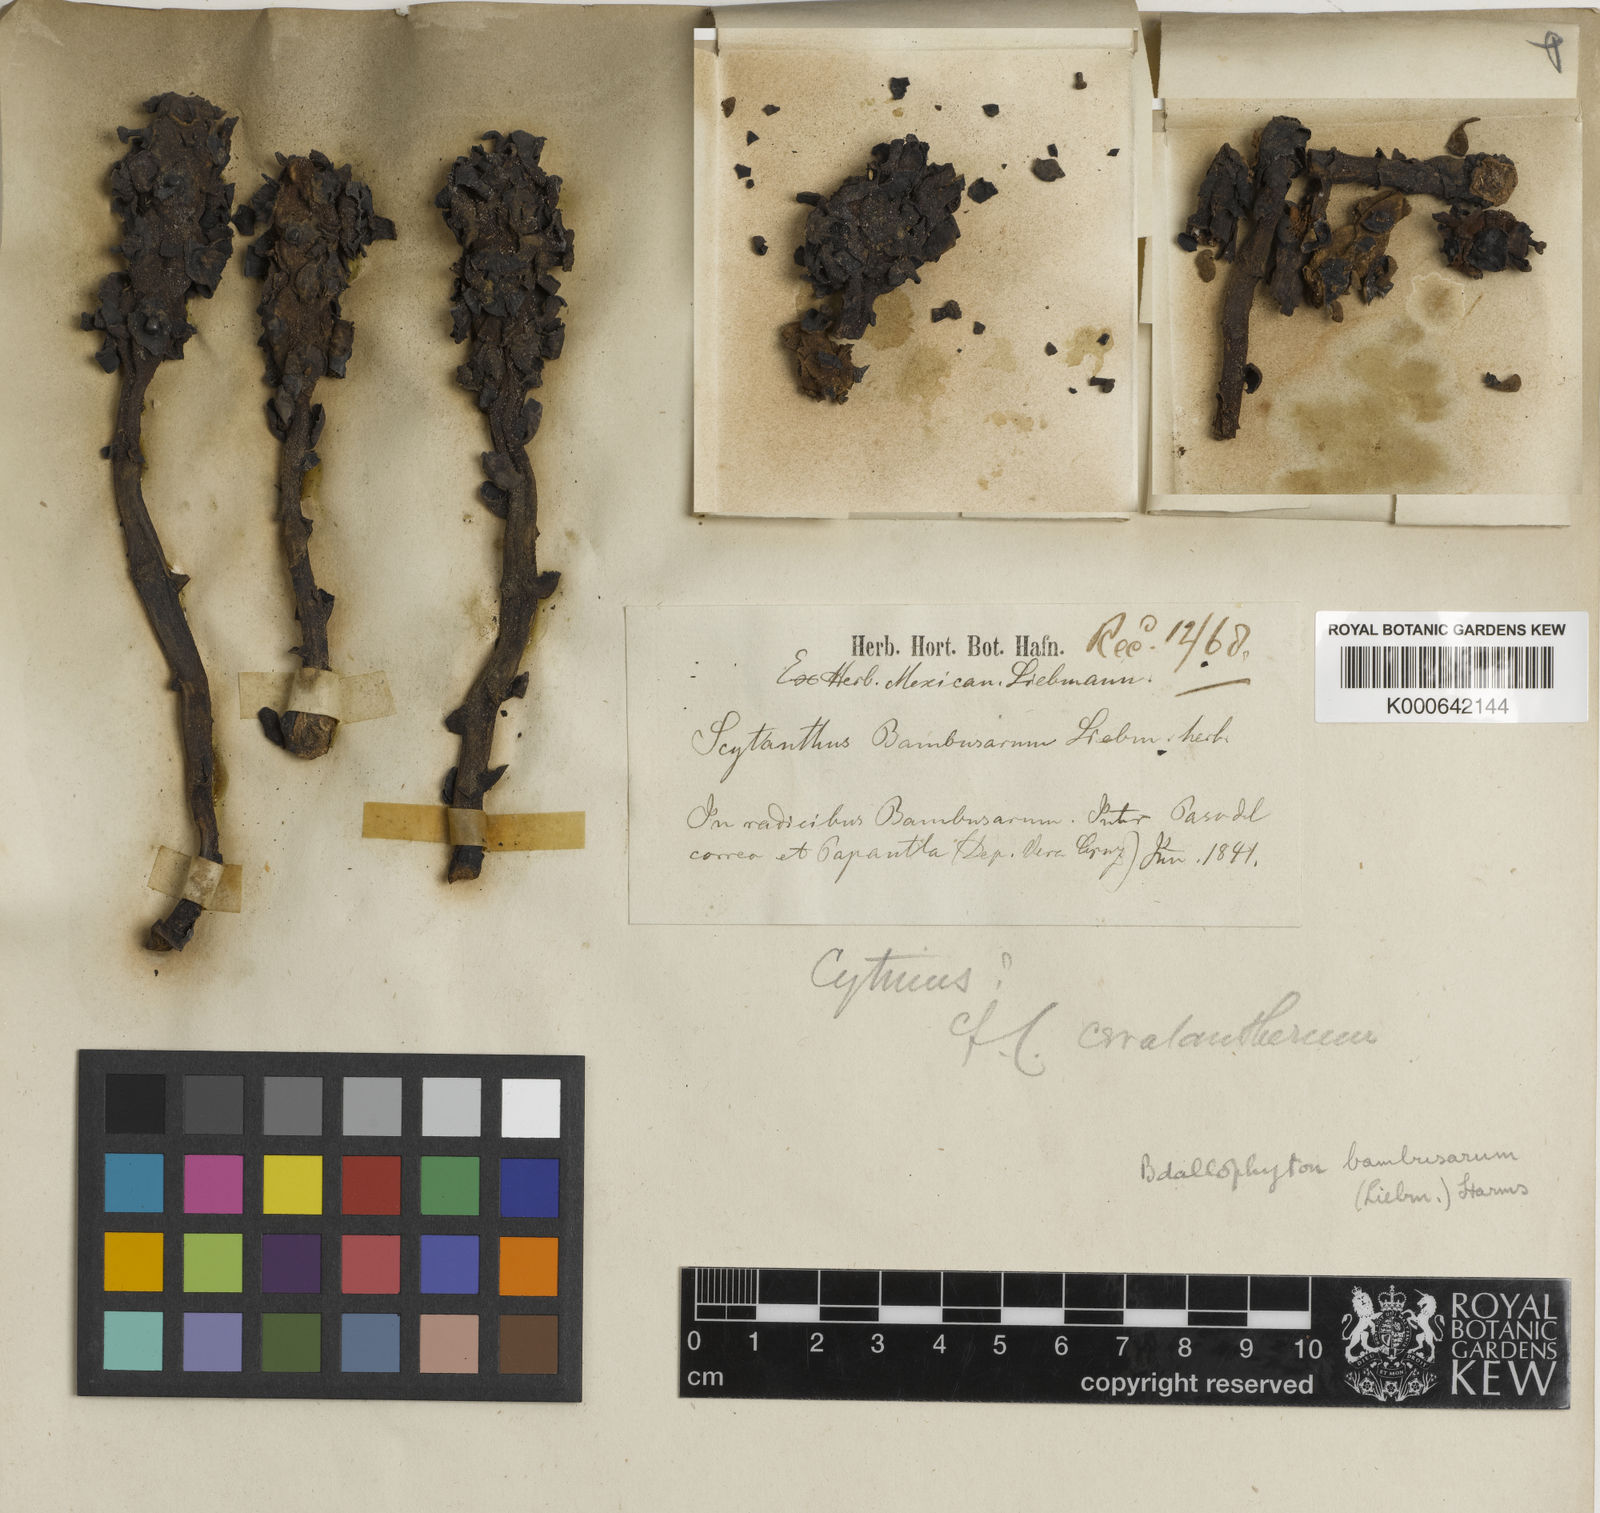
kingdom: Plantae
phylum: Tracheophyta
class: Magnoliopsida
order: Malvales
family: Cytinaceae
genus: Bdallophytum
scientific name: Bdallophytum
